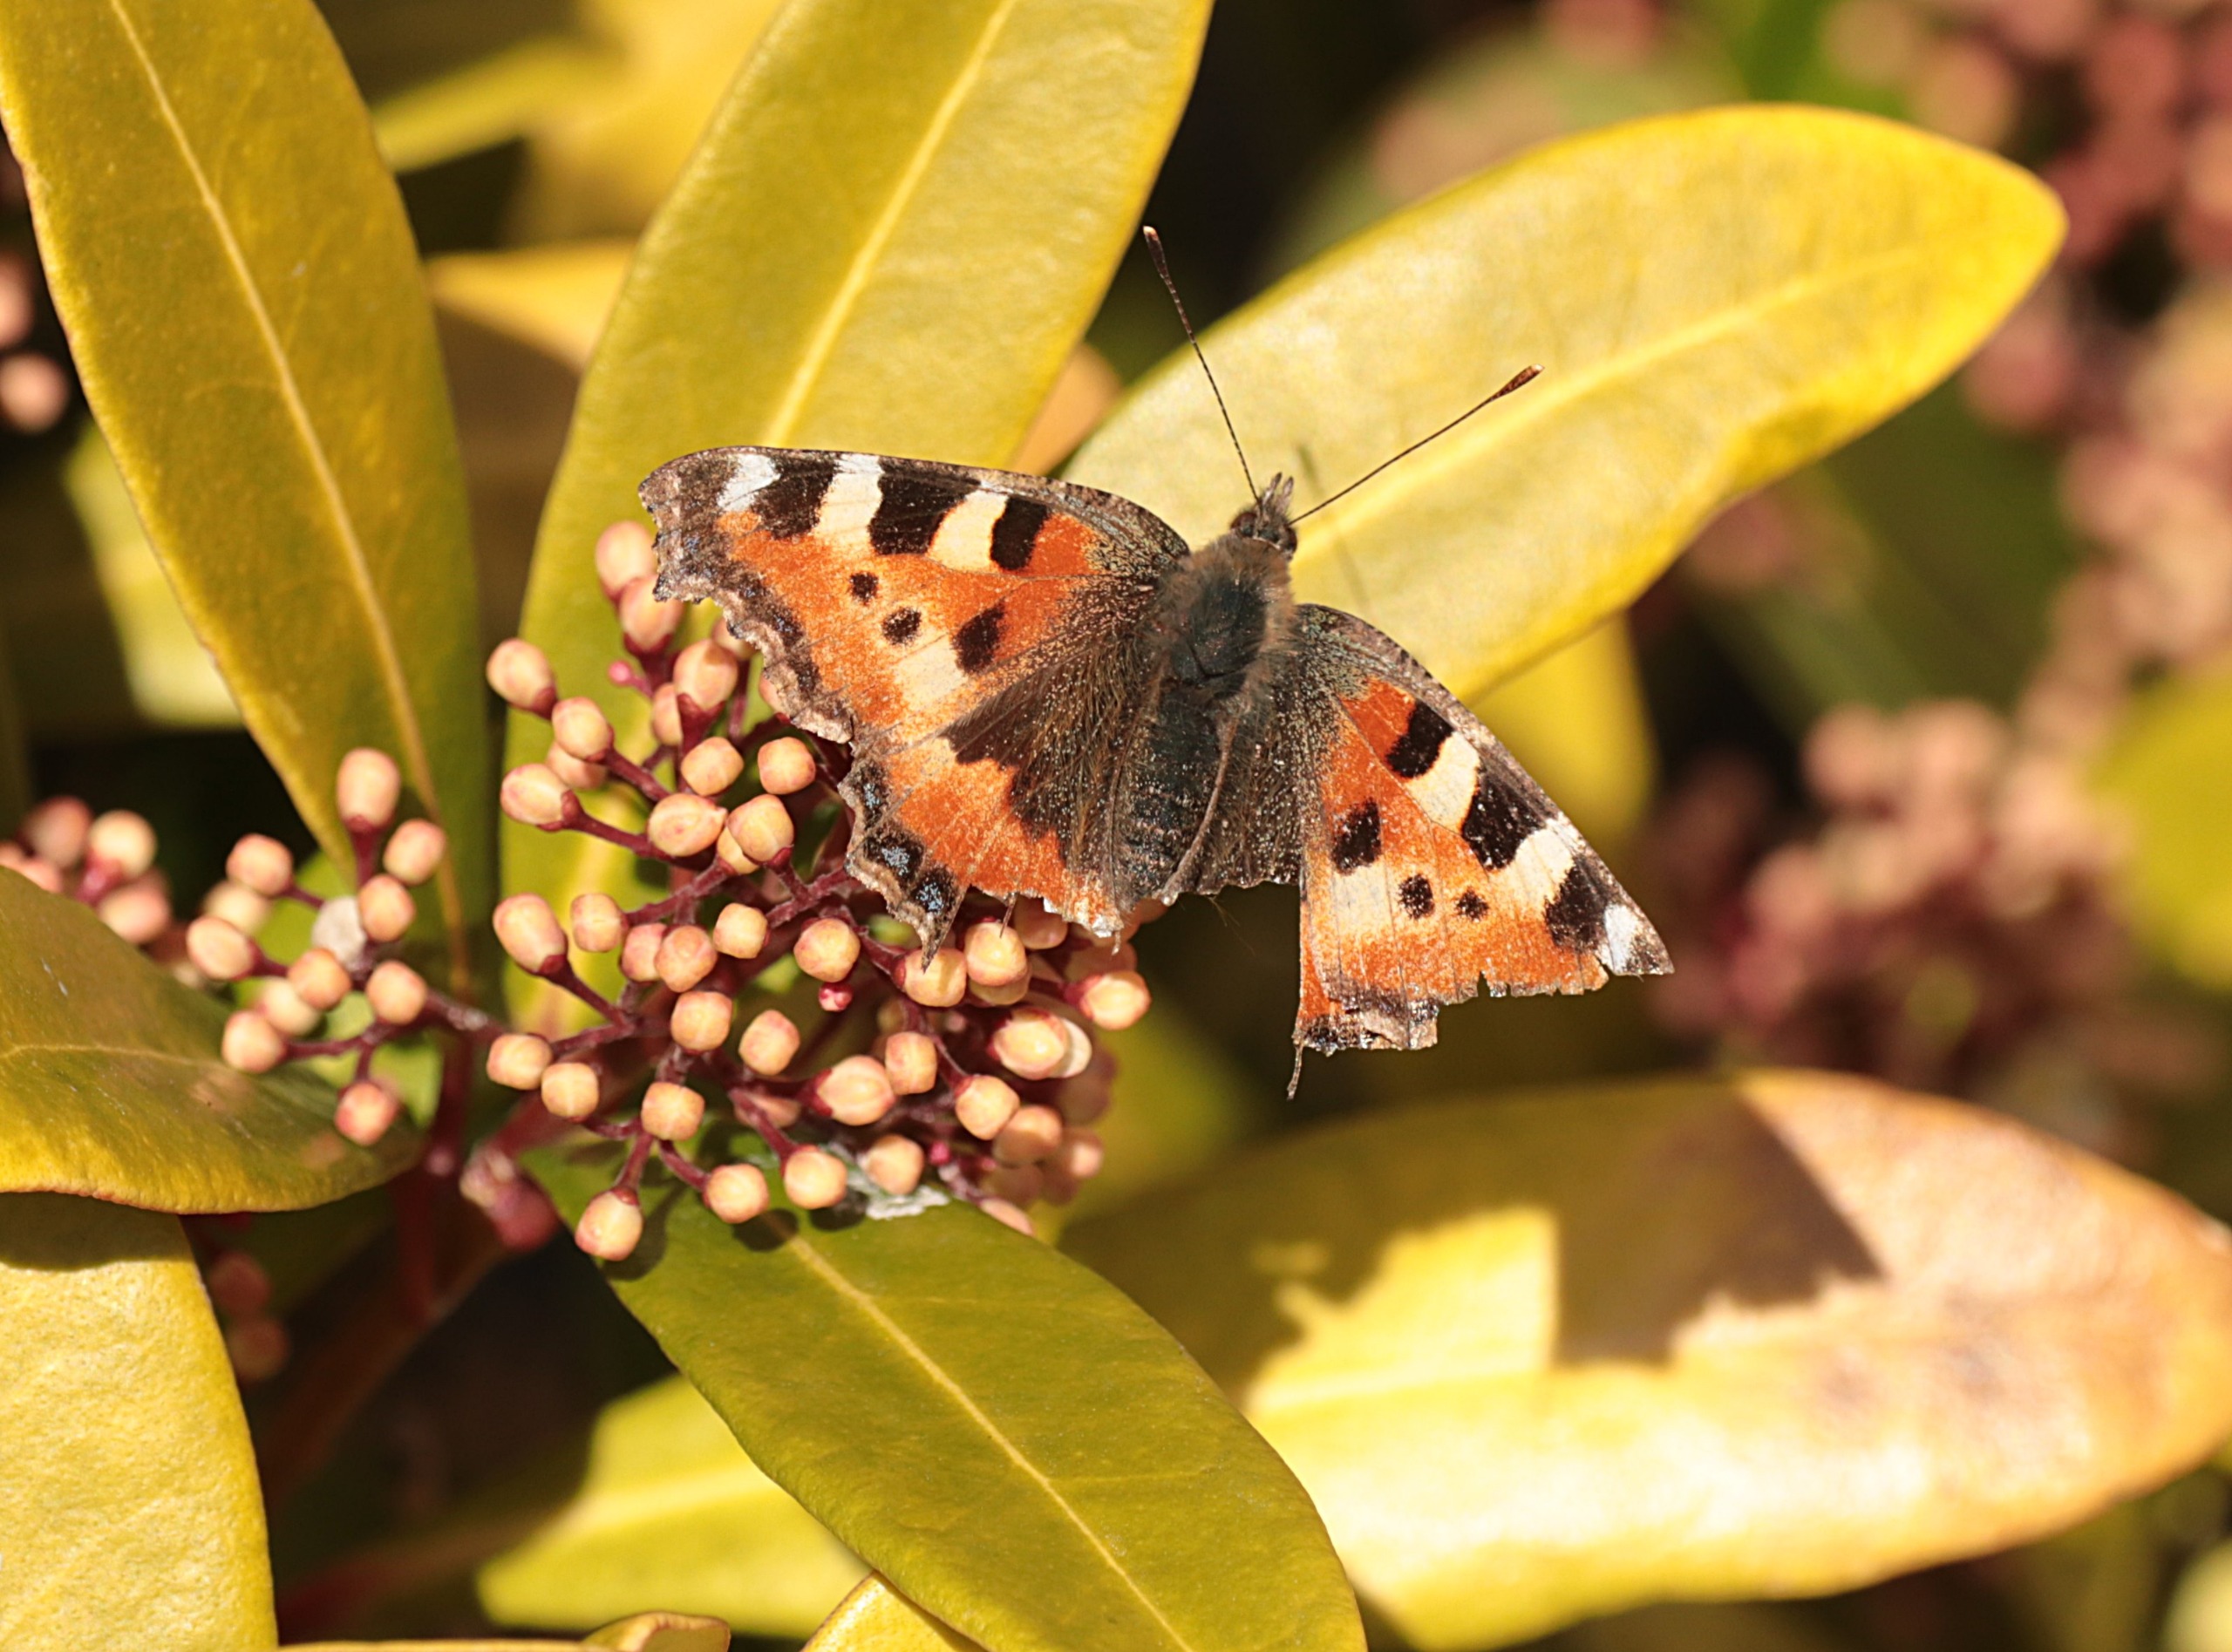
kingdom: Animalia
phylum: Arthropoda
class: Insecta
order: Lepidoptera
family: Nymphalidae
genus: Aglais
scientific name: Aglais urticae
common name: Nældens takvinge
